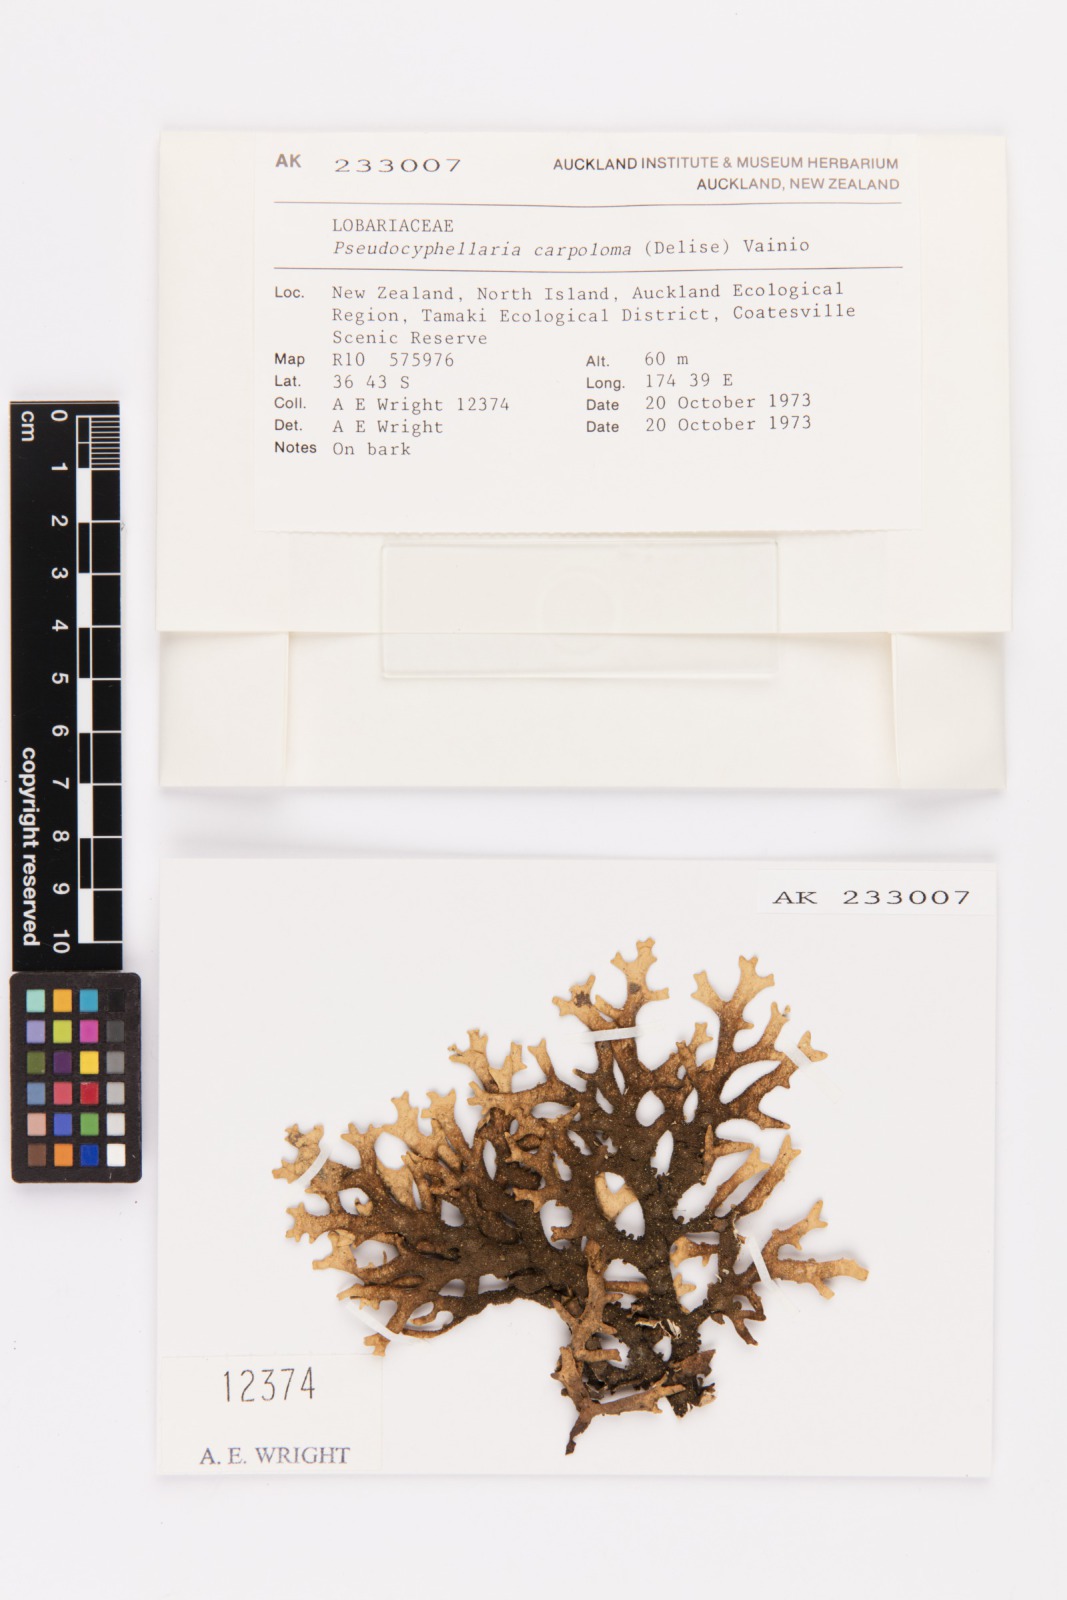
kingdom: Fungi
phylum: Ascomycota
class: Lecanoromycetes
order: Peltigerales
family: Lobariaceae
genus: Pseudocyphellaria
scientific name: Pseudocyphellaria carpoloma
